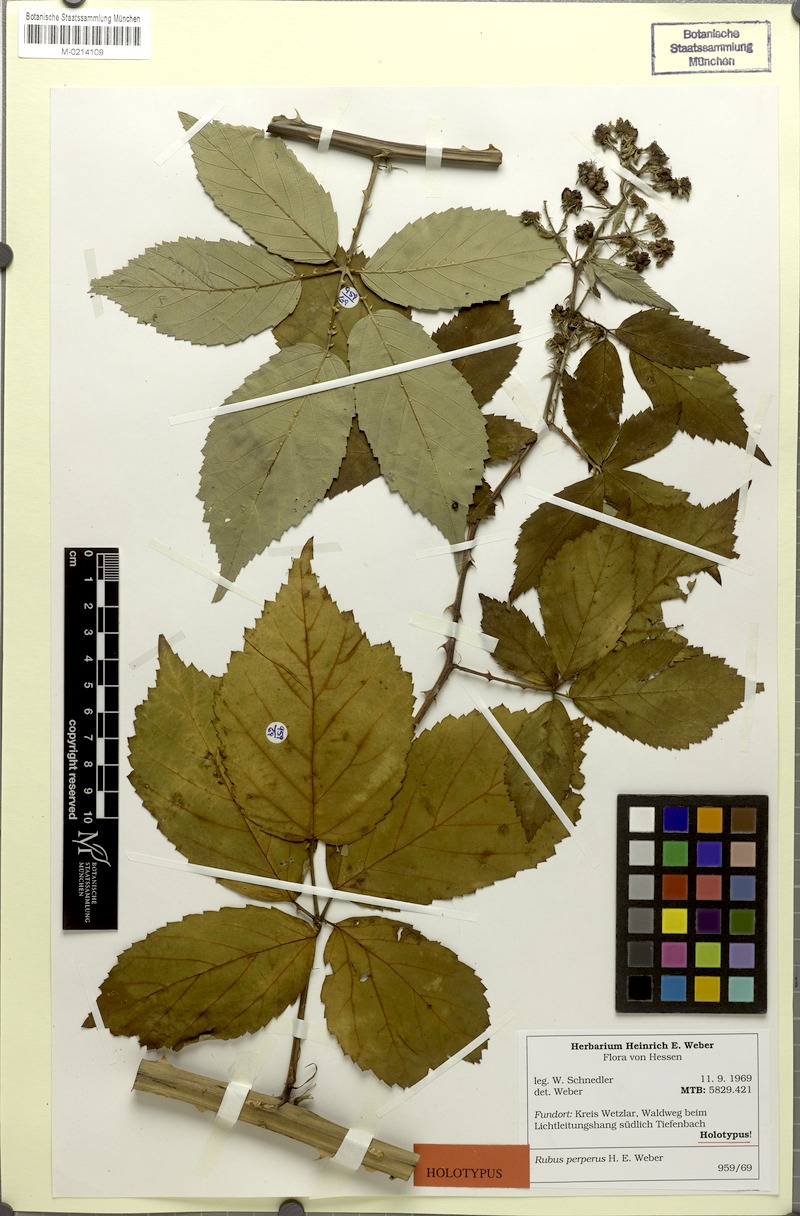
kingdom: Plantae
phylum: Tracheophyta
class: Magnoliopsida
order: Rosales
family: Rosaceae
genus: Rubus
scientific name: Rubus perperus
